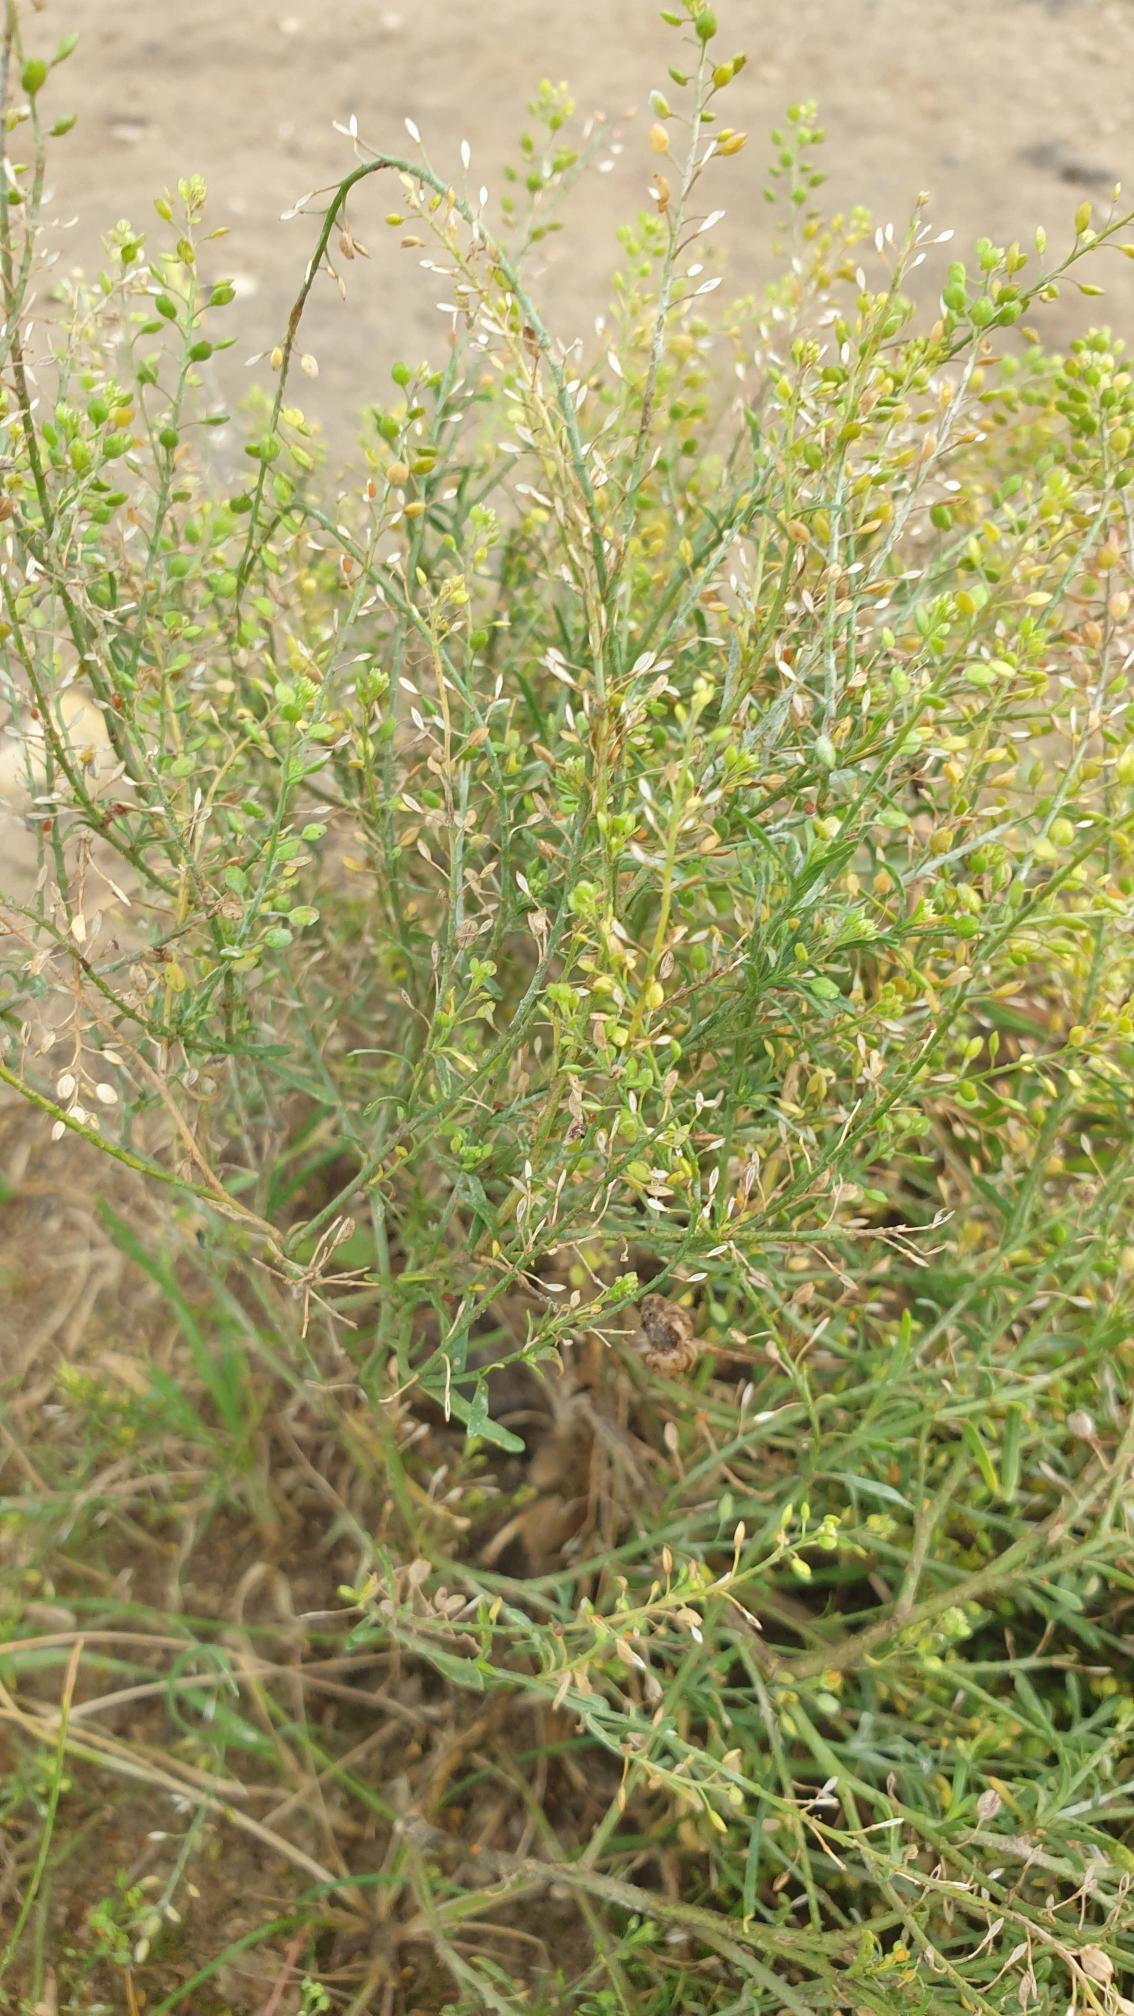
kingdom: Plantae
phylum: Tracheophyta
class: Magnoliopsida
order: Brassicales
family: Brassicaceae
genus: Lepidium
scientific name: Lepidium ruderale
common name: Stinkende karse
